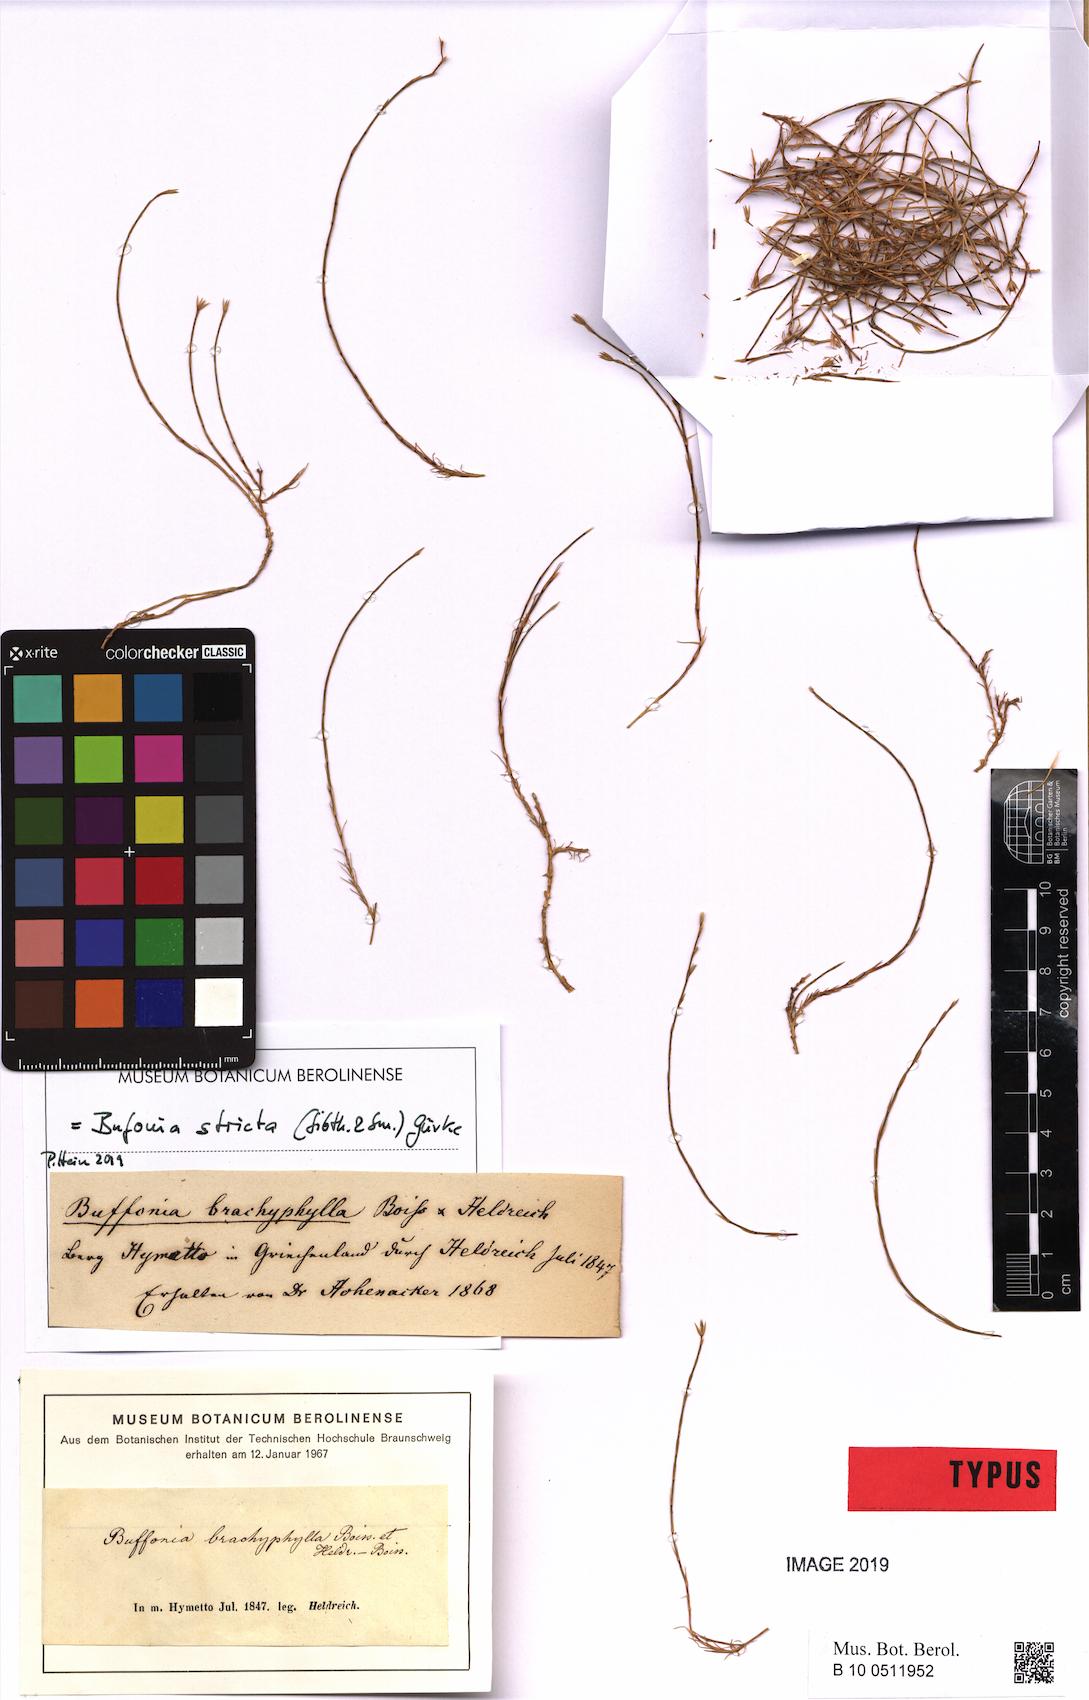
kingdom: Plantae
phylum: Tracheophyta
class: Magnoliopsida
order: Caryophyllales
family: Caryophyllaceae
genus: Bufonia
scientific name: Bufonia stricta
